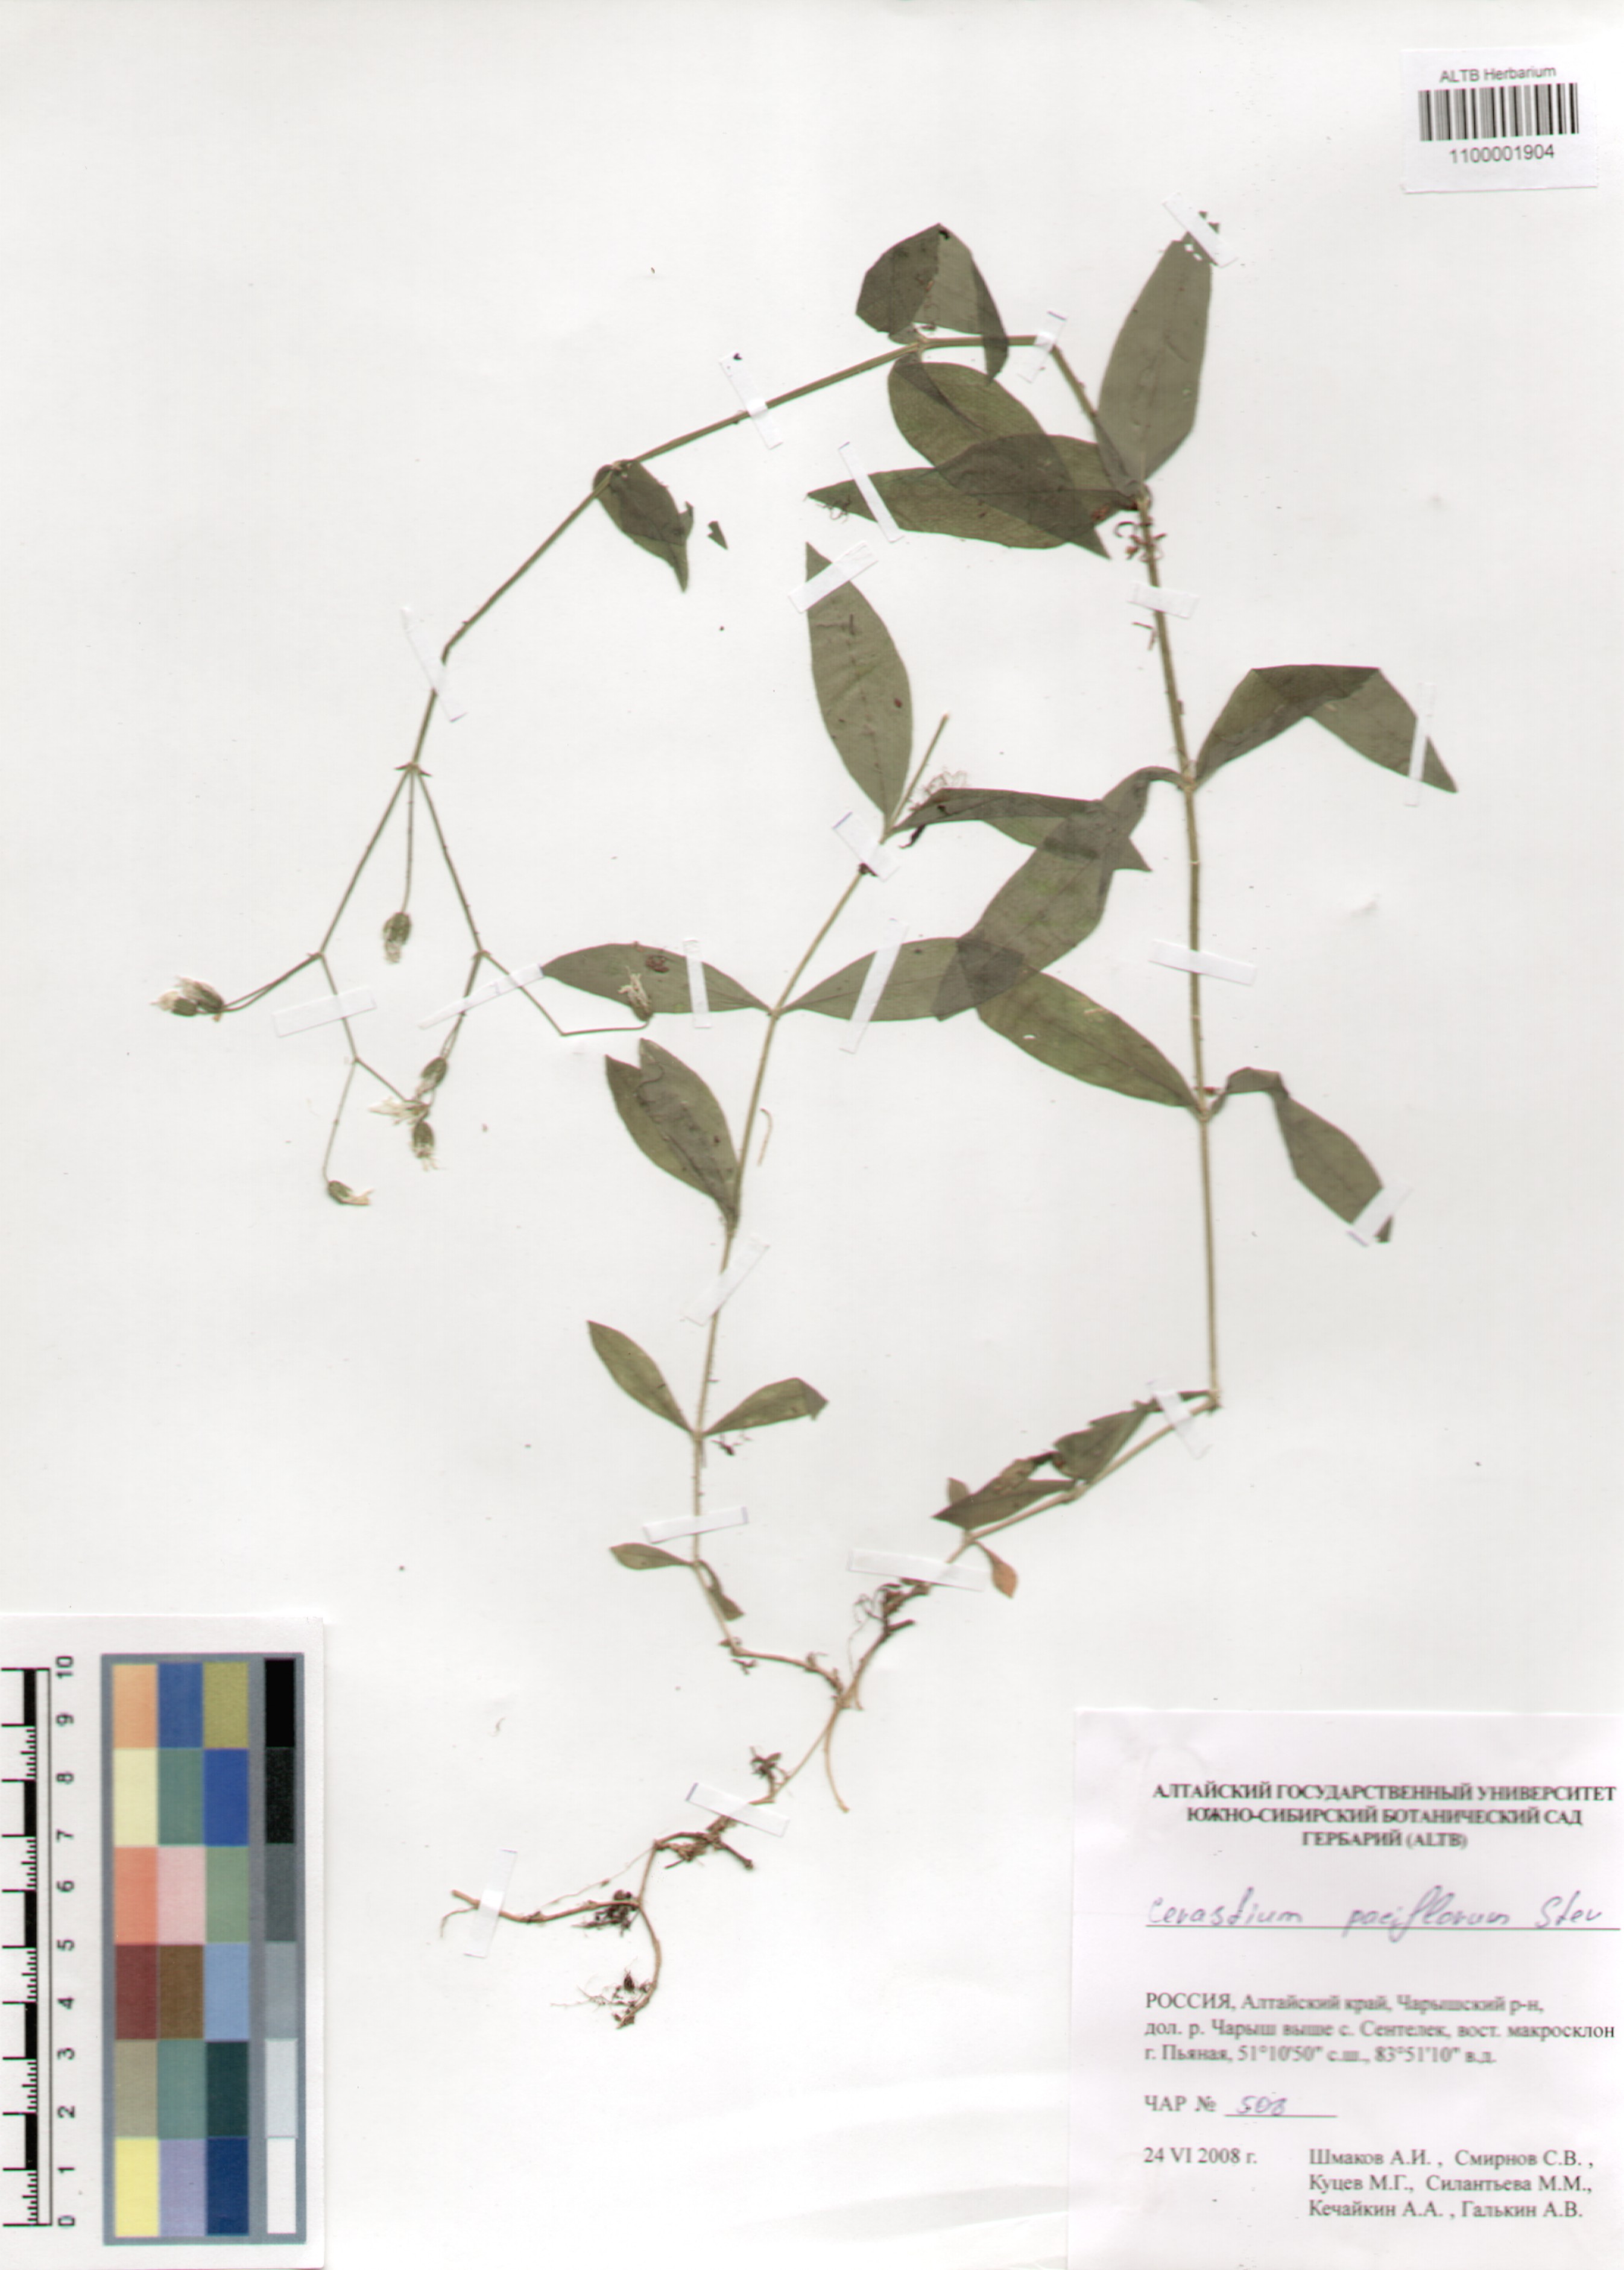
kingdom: Plantae
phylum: Tracheophyta
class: Magnoliopsida
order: Caryophyllales
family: Caryophyllaceae
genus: Cerastium
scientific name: Cerastium pauciflorum
